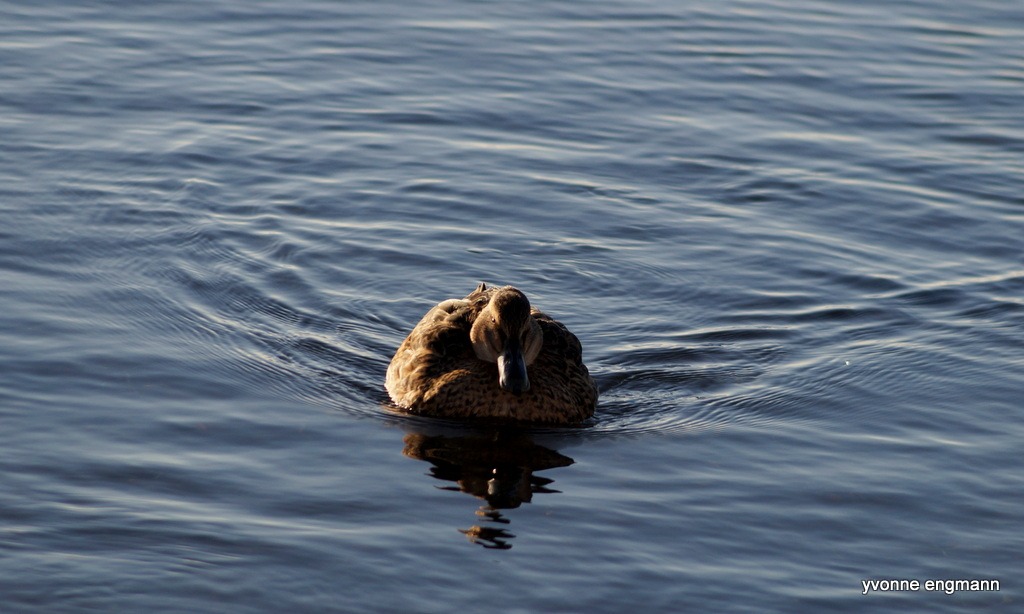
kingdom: Animalia
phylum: Chordata
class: Aves
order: Anseriformes
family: Anatidae
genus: Anas
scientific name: Anas platyrhynchos
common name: Gråand
